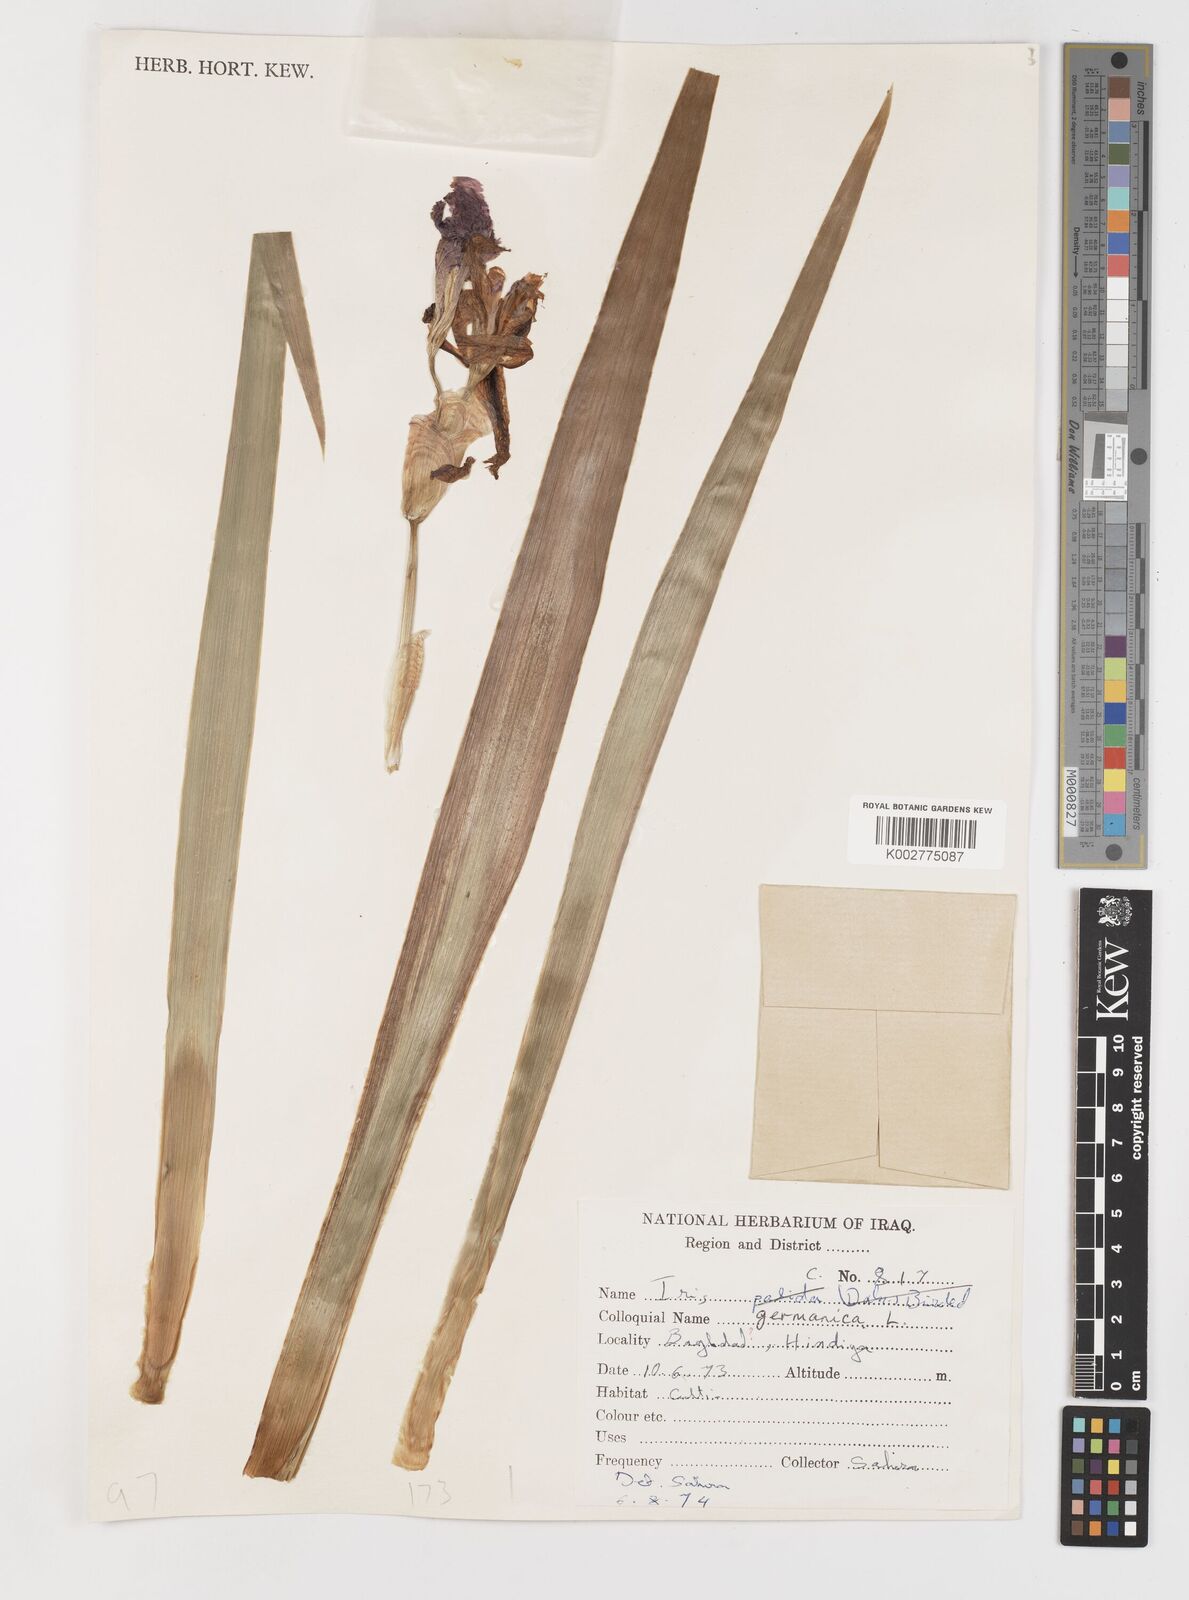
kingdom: Plantae
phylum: Tracheophyta
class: Liliopsida
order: Asparagales
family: Iridaceae
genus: Iris
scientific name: Iris germanica
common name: German iris
